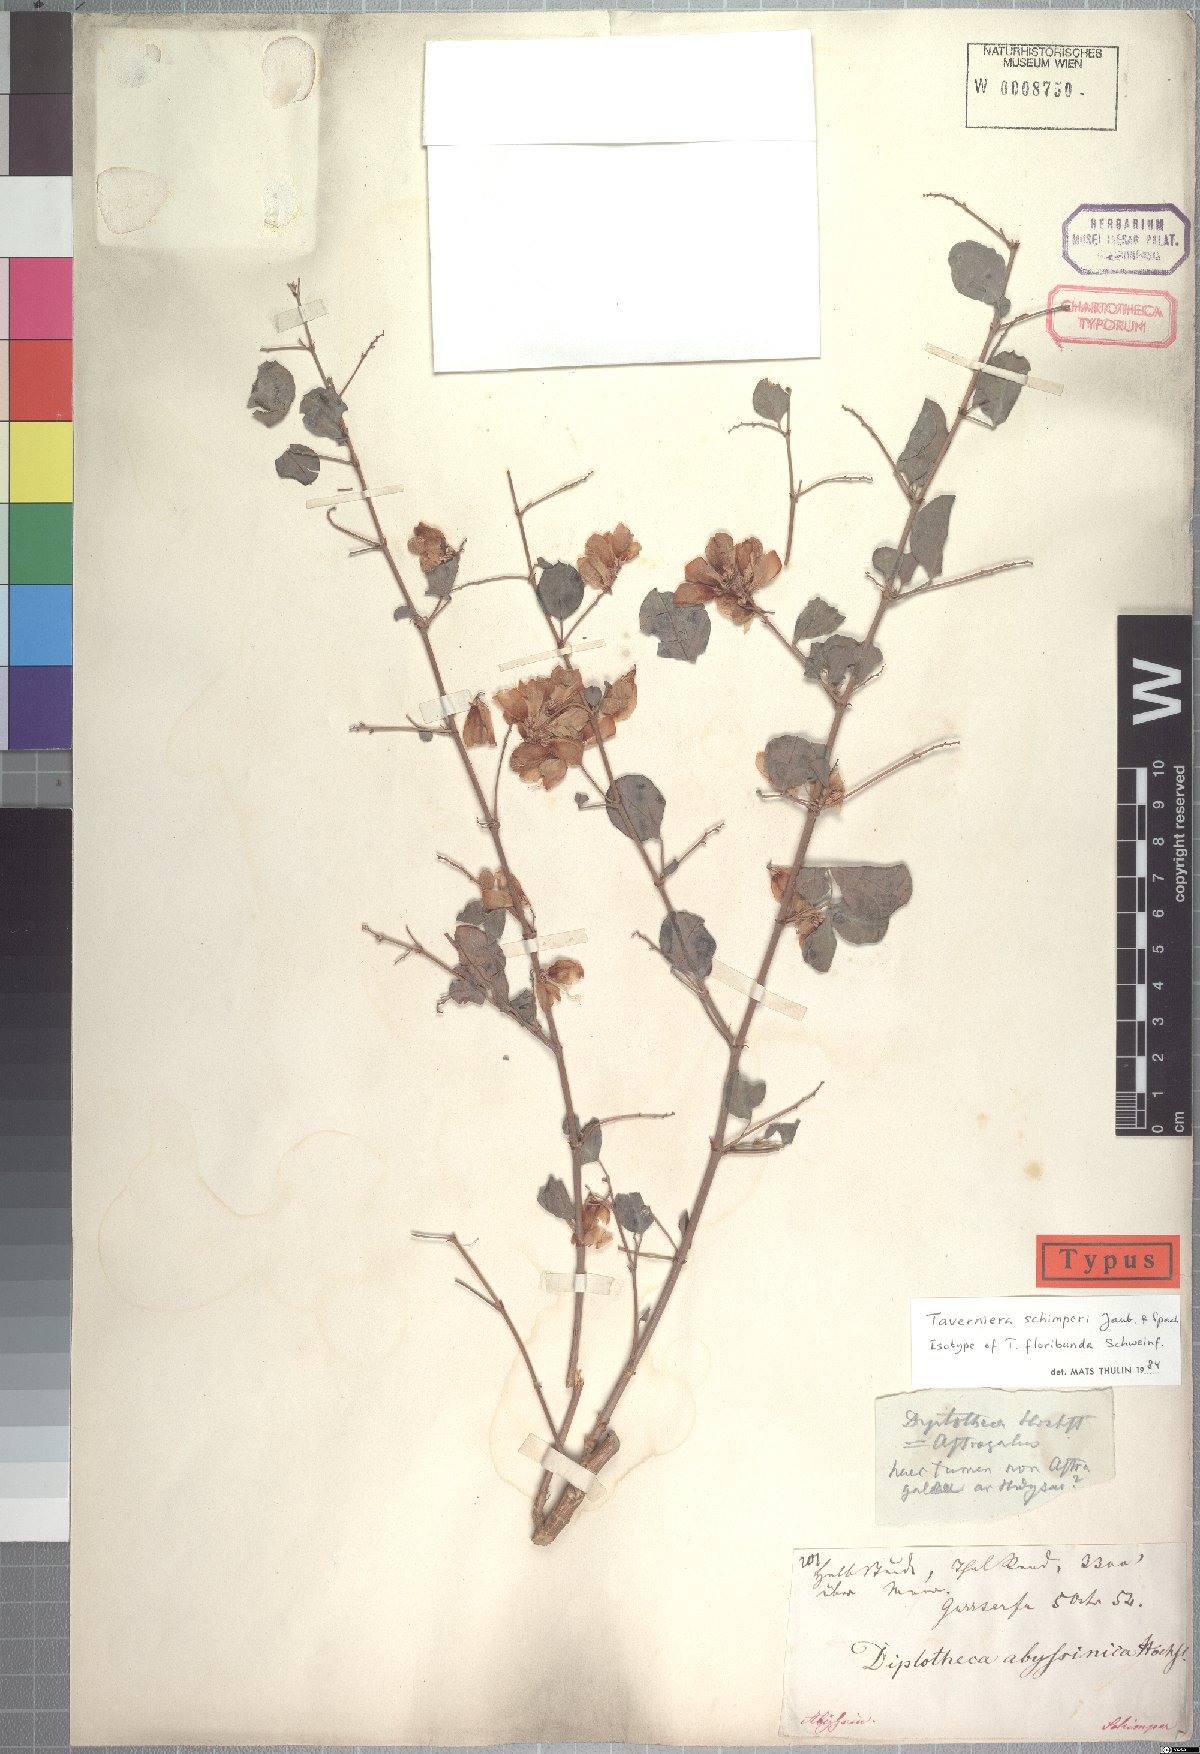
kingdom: Plantae
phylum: Tracheophyta
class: Magnoliopsida
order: Fabales
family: Fabaceae
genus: Taverniera
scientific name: Taverniera schimperi
